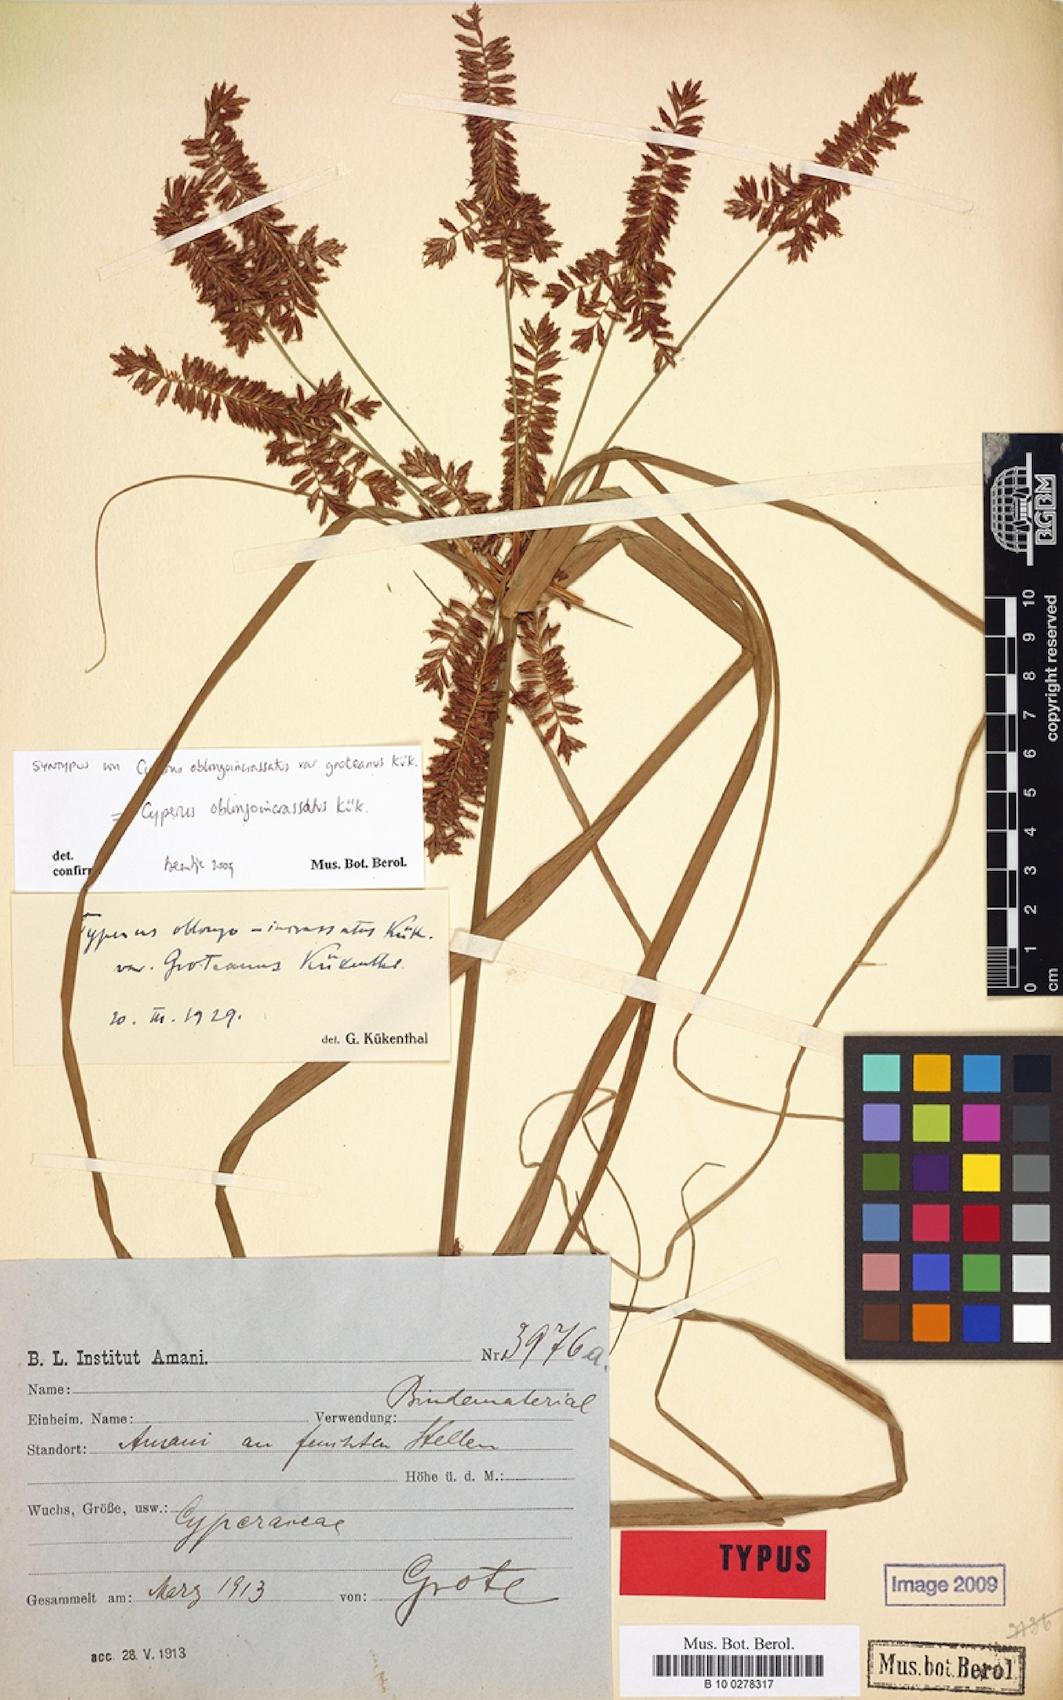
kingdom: Plantae
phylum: Tracheophyta
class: Liliopsida
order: Poales
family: Cyperaceae
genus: Cyperus
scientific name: Cyperus oblongoincrassatus
